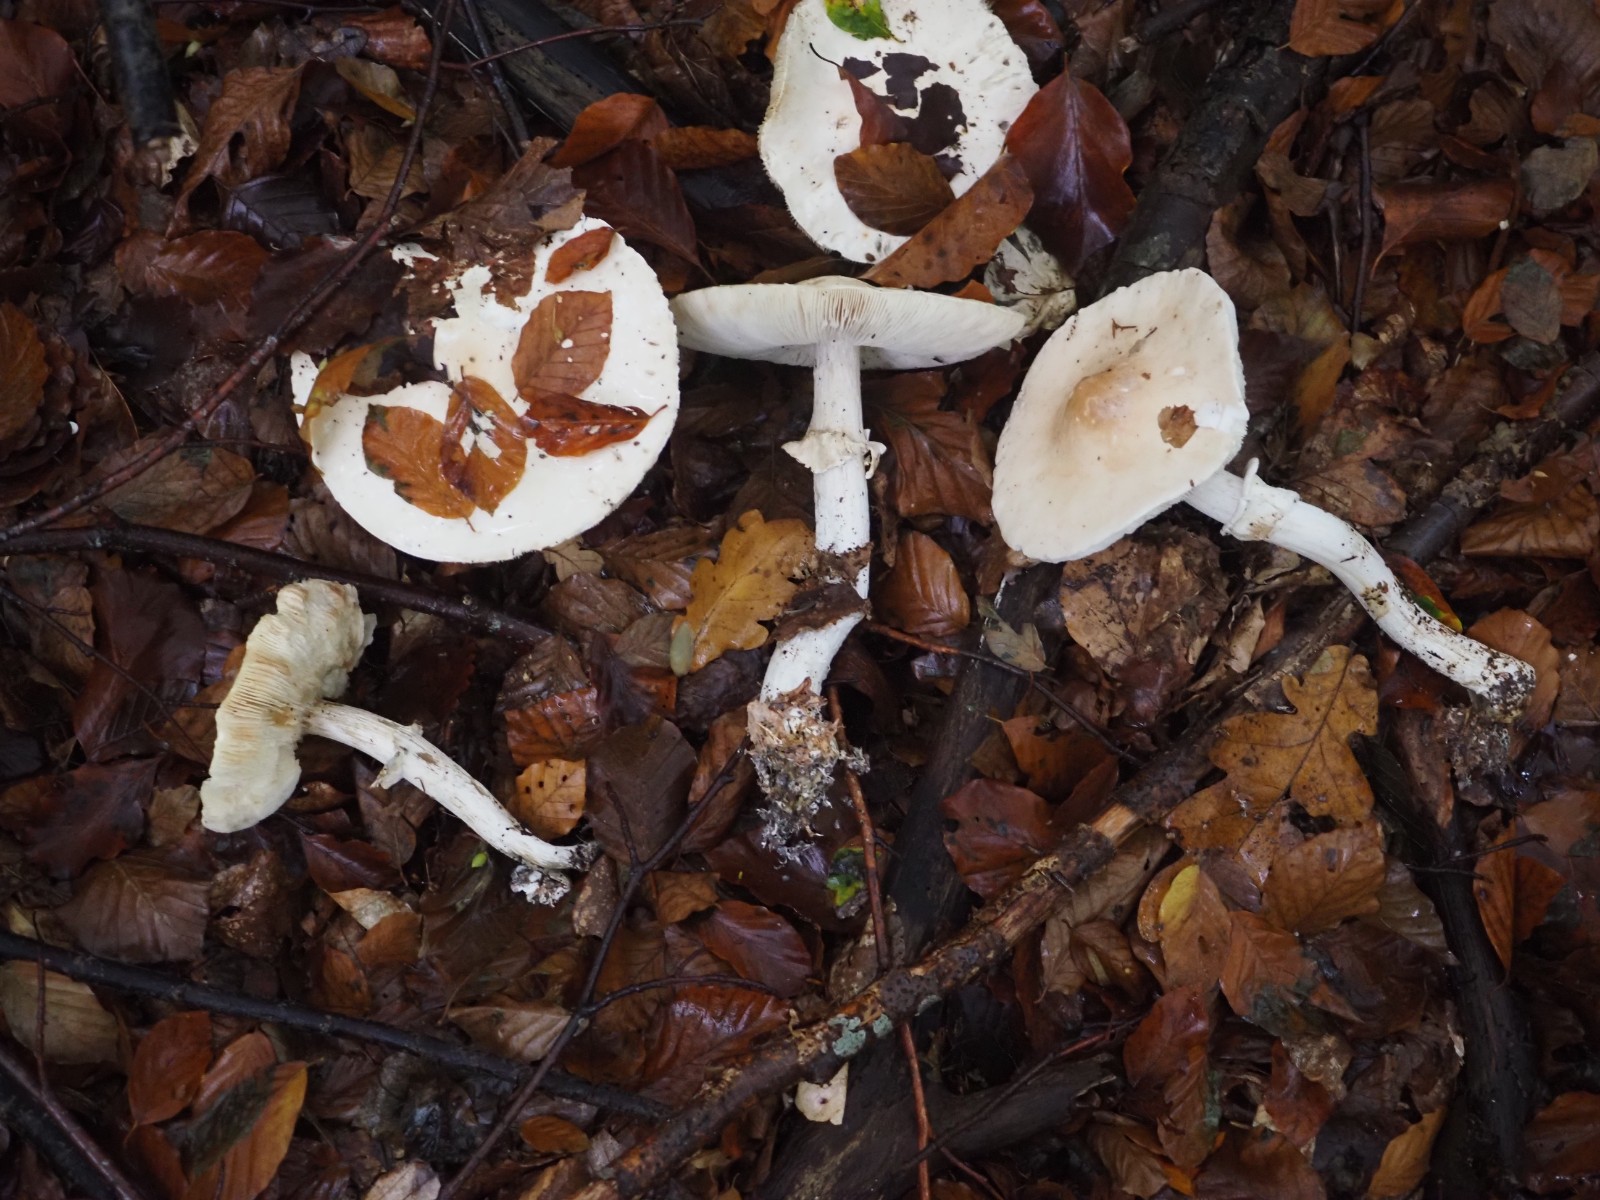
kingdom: Fungi
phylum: Basidiomycota
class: Agaricomycetes
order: Agaricales
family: Amanitaceae
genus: Limacellopsis
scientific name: Limacellopsis guttata
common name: tåre-snekkehat
